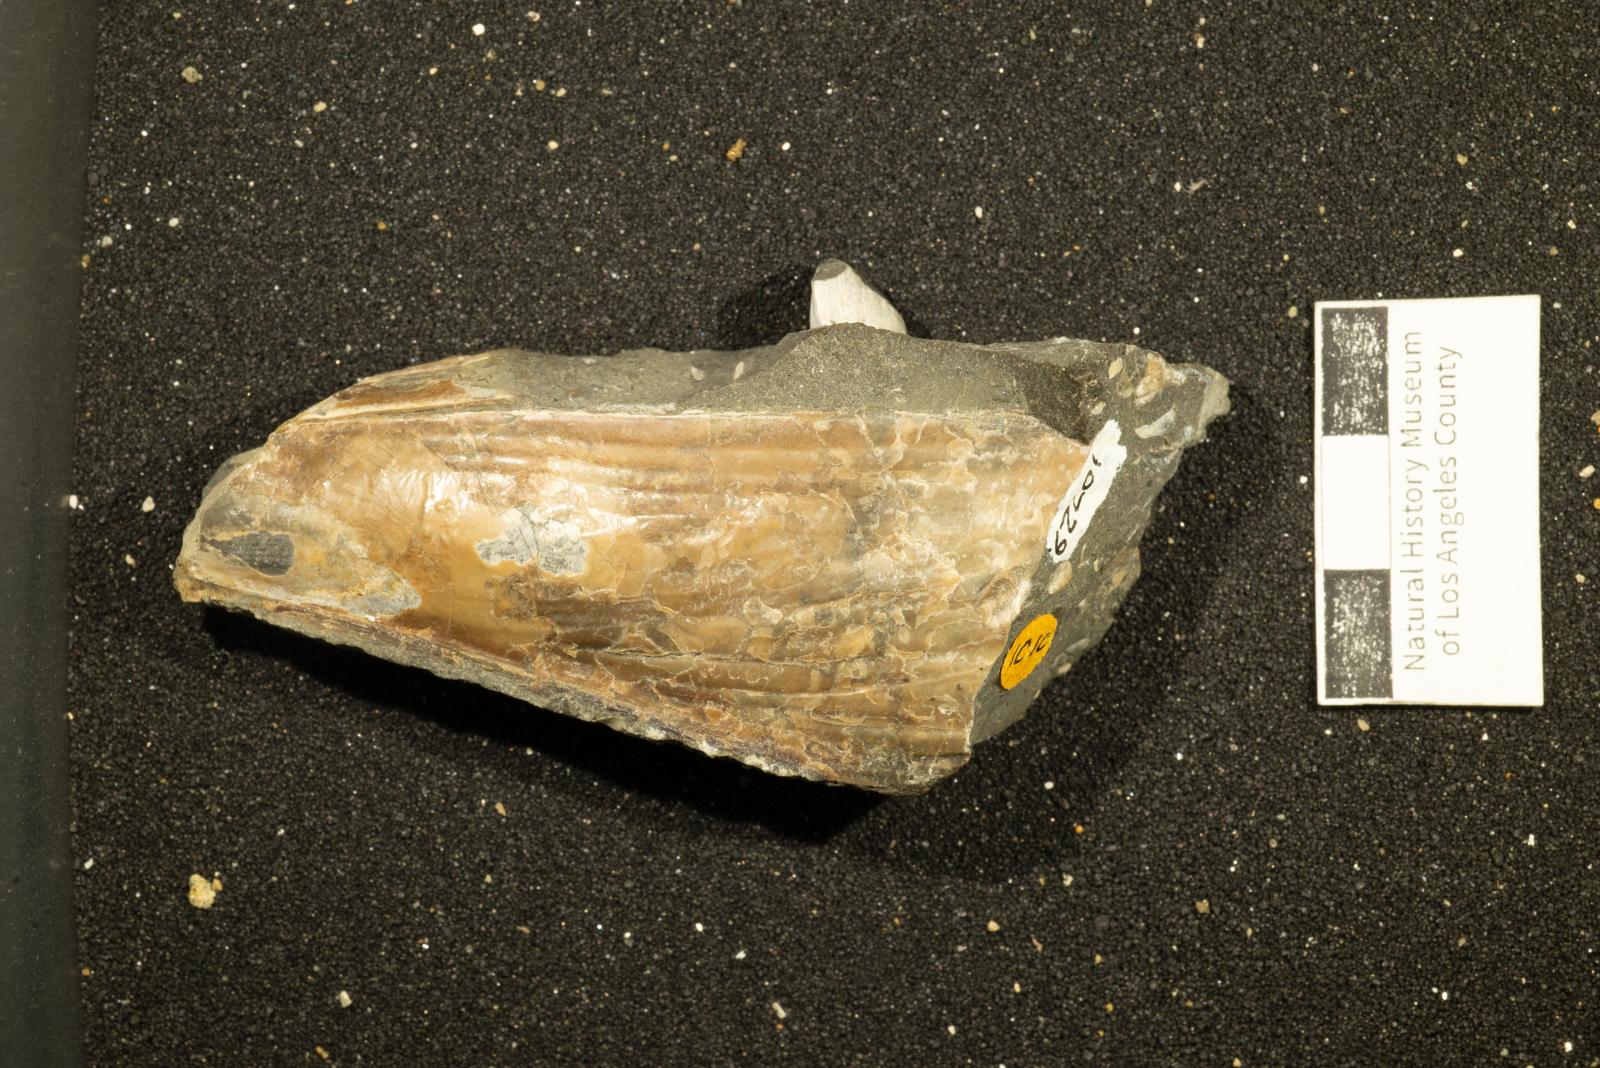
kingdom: Animalia
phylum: Mollusca
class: Bivalvia
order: Ostreida
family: Pinnidae
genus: Pinna
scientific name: Pinna
